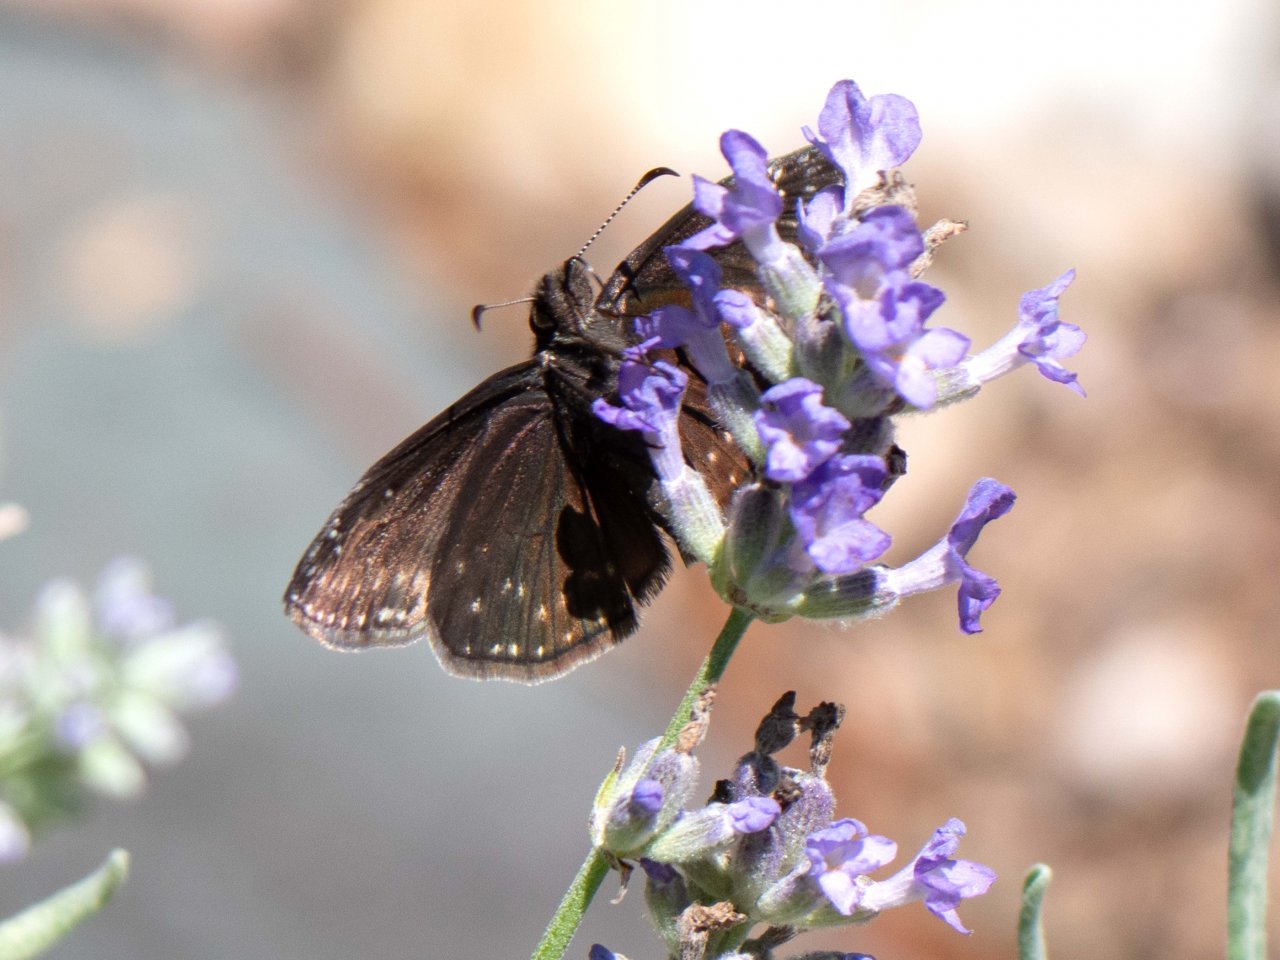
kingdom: Animalia
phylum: Arthropoda
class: Insecta
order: Lepidoptera
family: Hesperiidae
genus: Gesta
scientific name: Gesta
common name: Wild Indigo Duskywing
